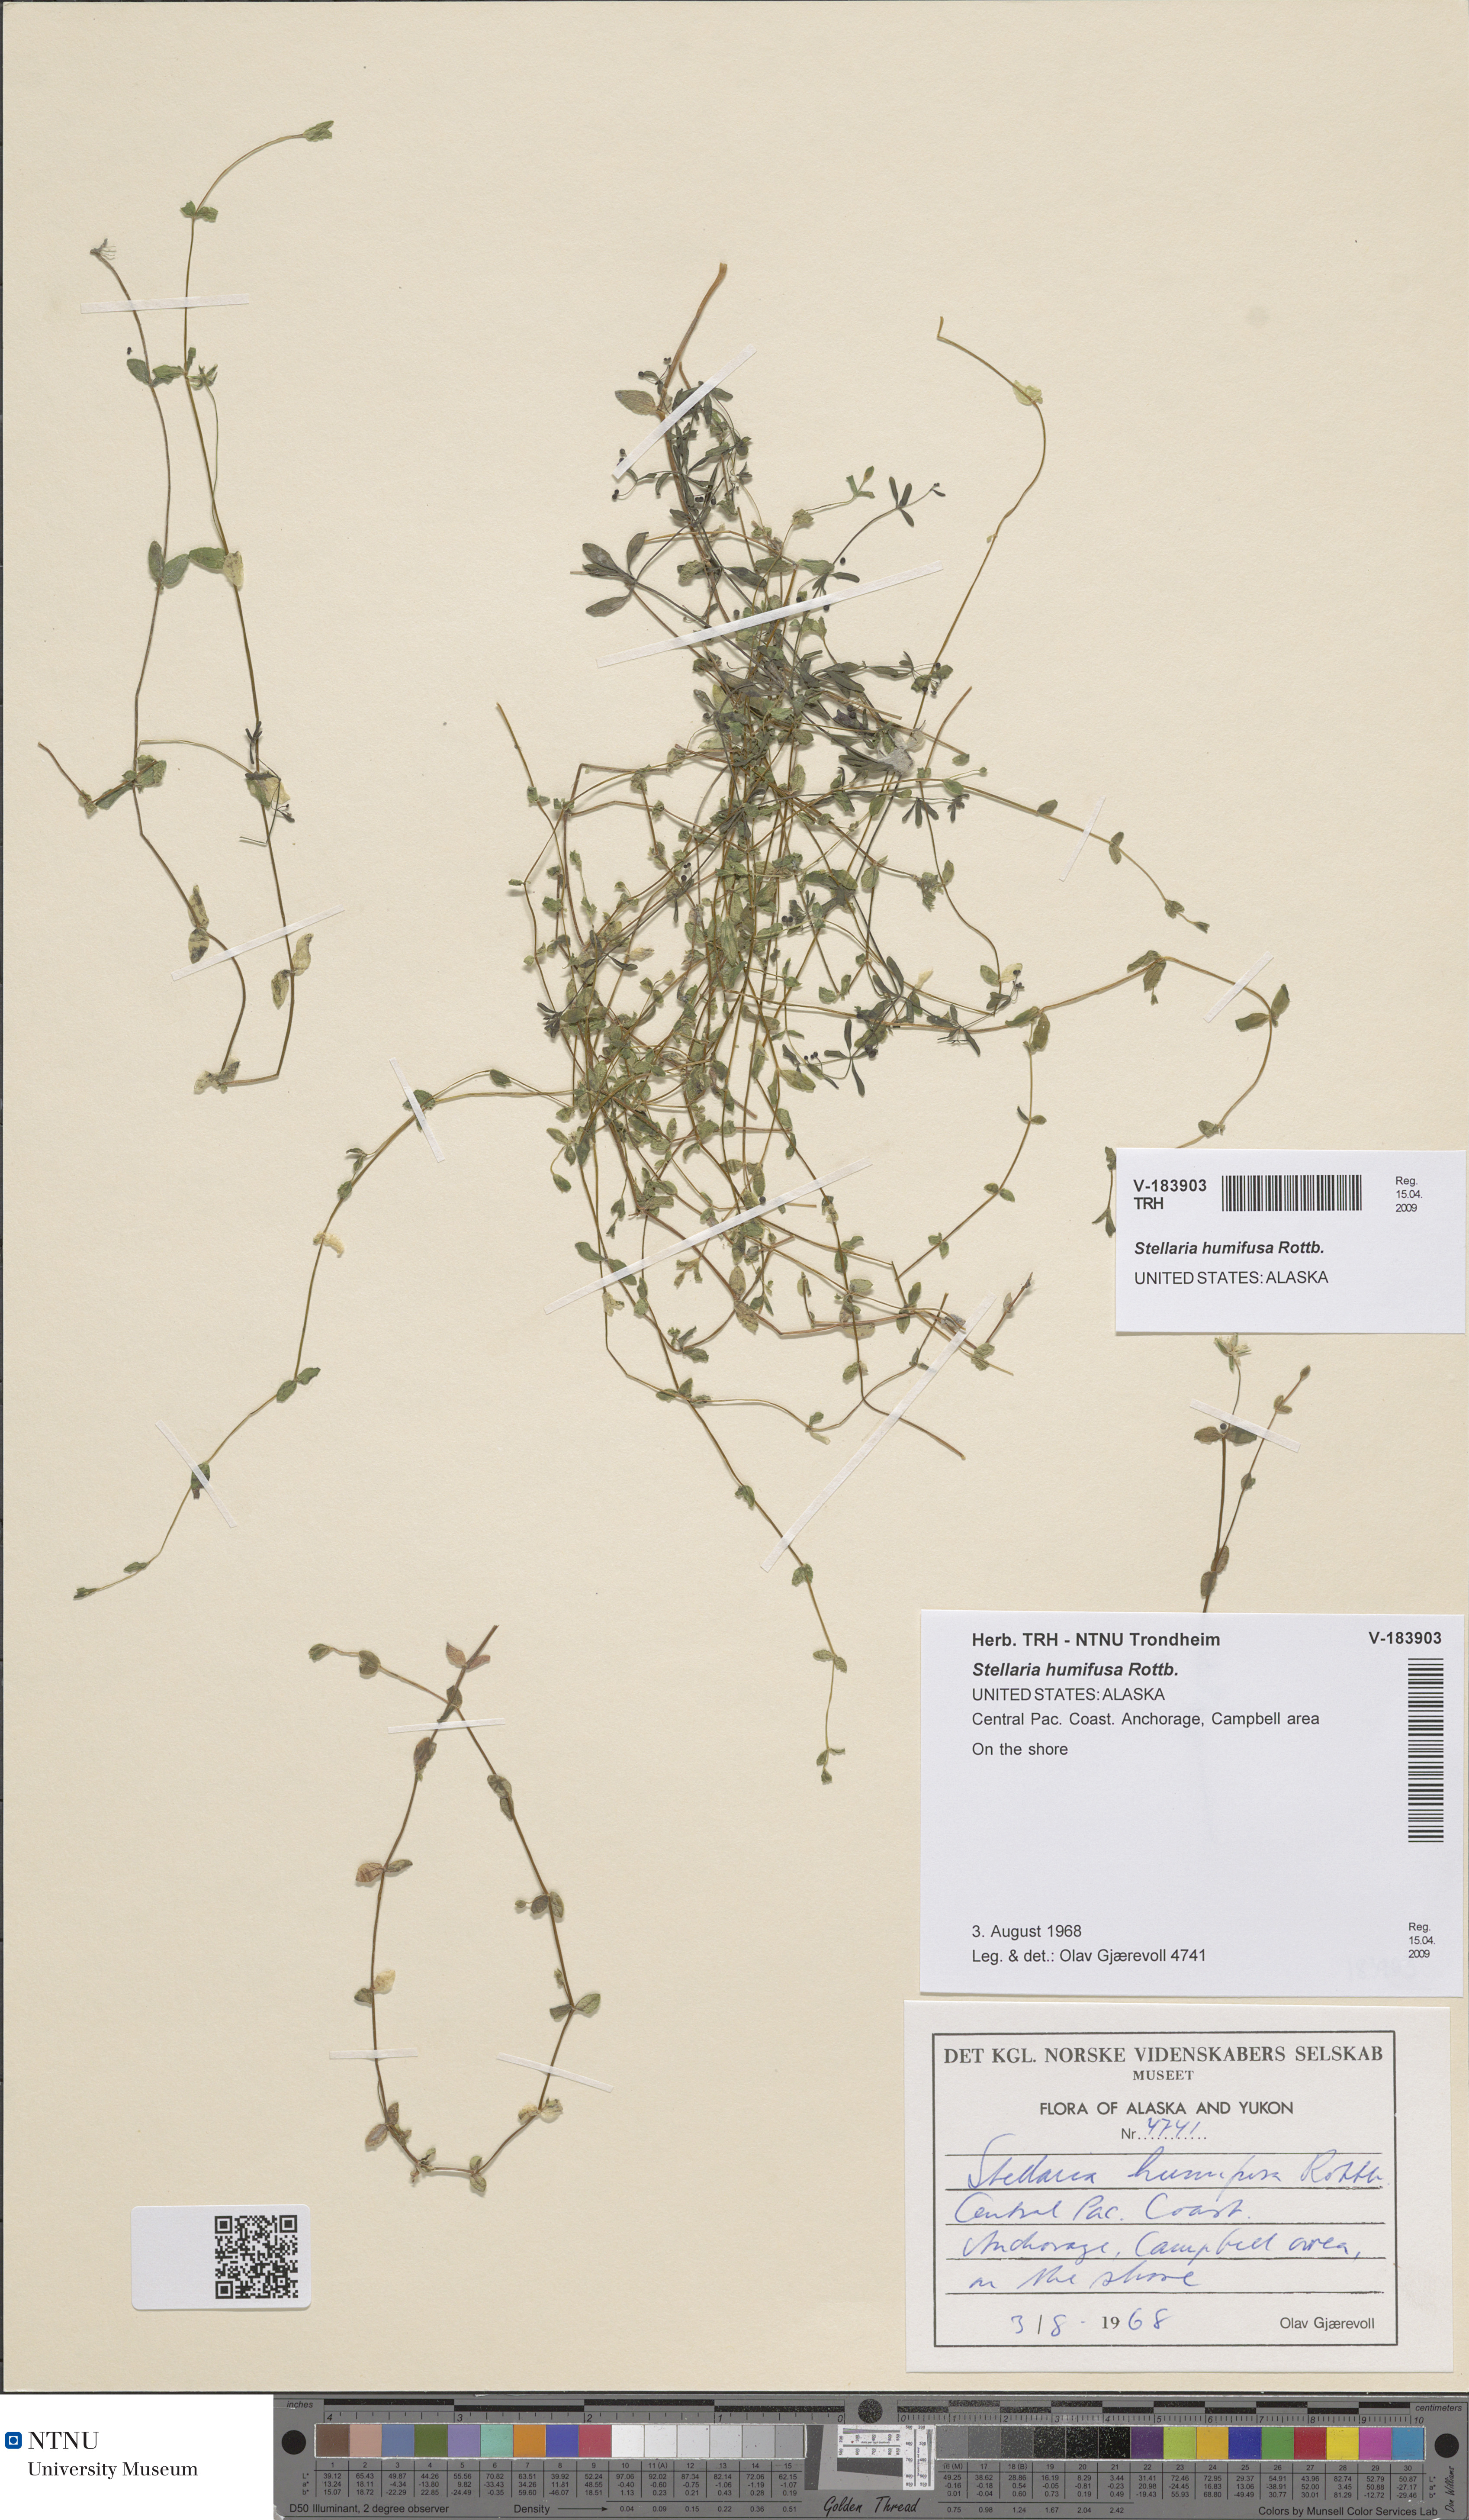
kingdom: Plantae
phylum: Tracheophyta
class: Magnoliopsida
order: Caryophyllales
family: Caryophyllaceae
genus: Stellaria
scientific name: Stellaria humifusa
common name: Creeping starwort
